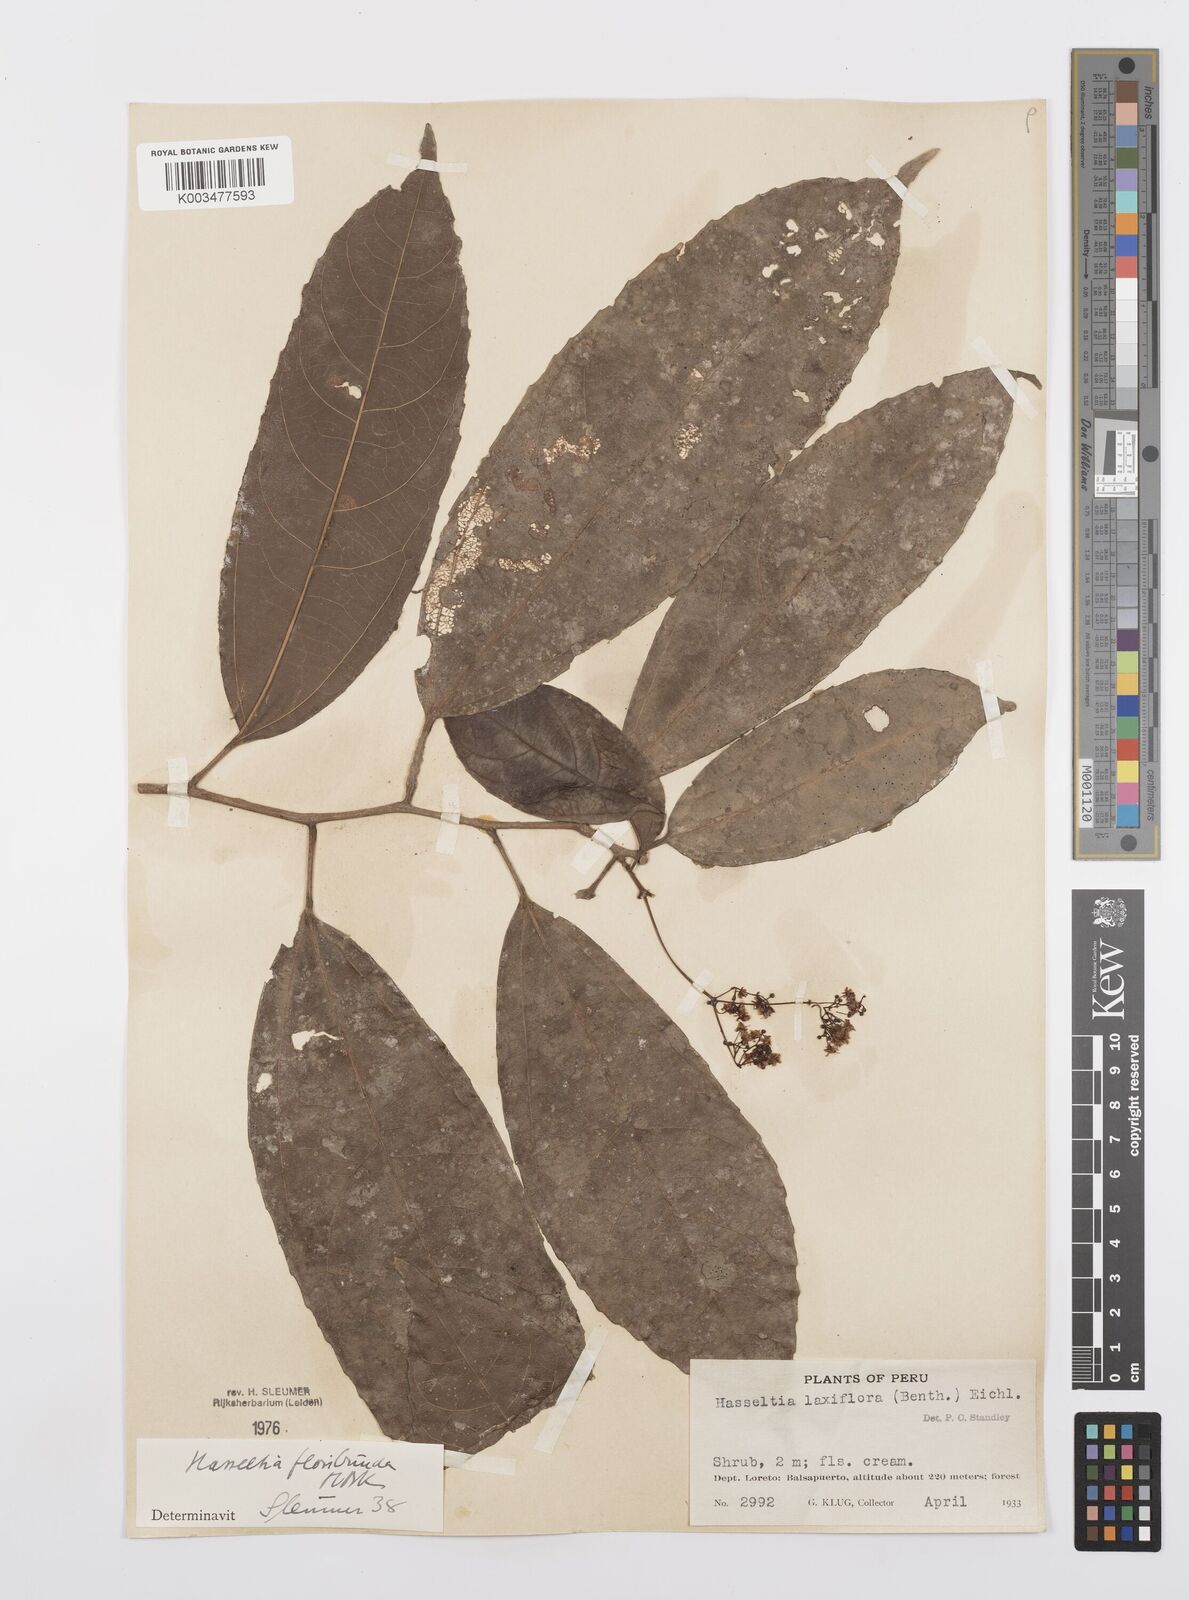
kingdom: Plantae
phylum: Tracheophyta
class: Magnoliopsida
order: Malpighiales
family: Salicaceae
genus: Hasseltia
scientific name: Hasseltia floribunda
